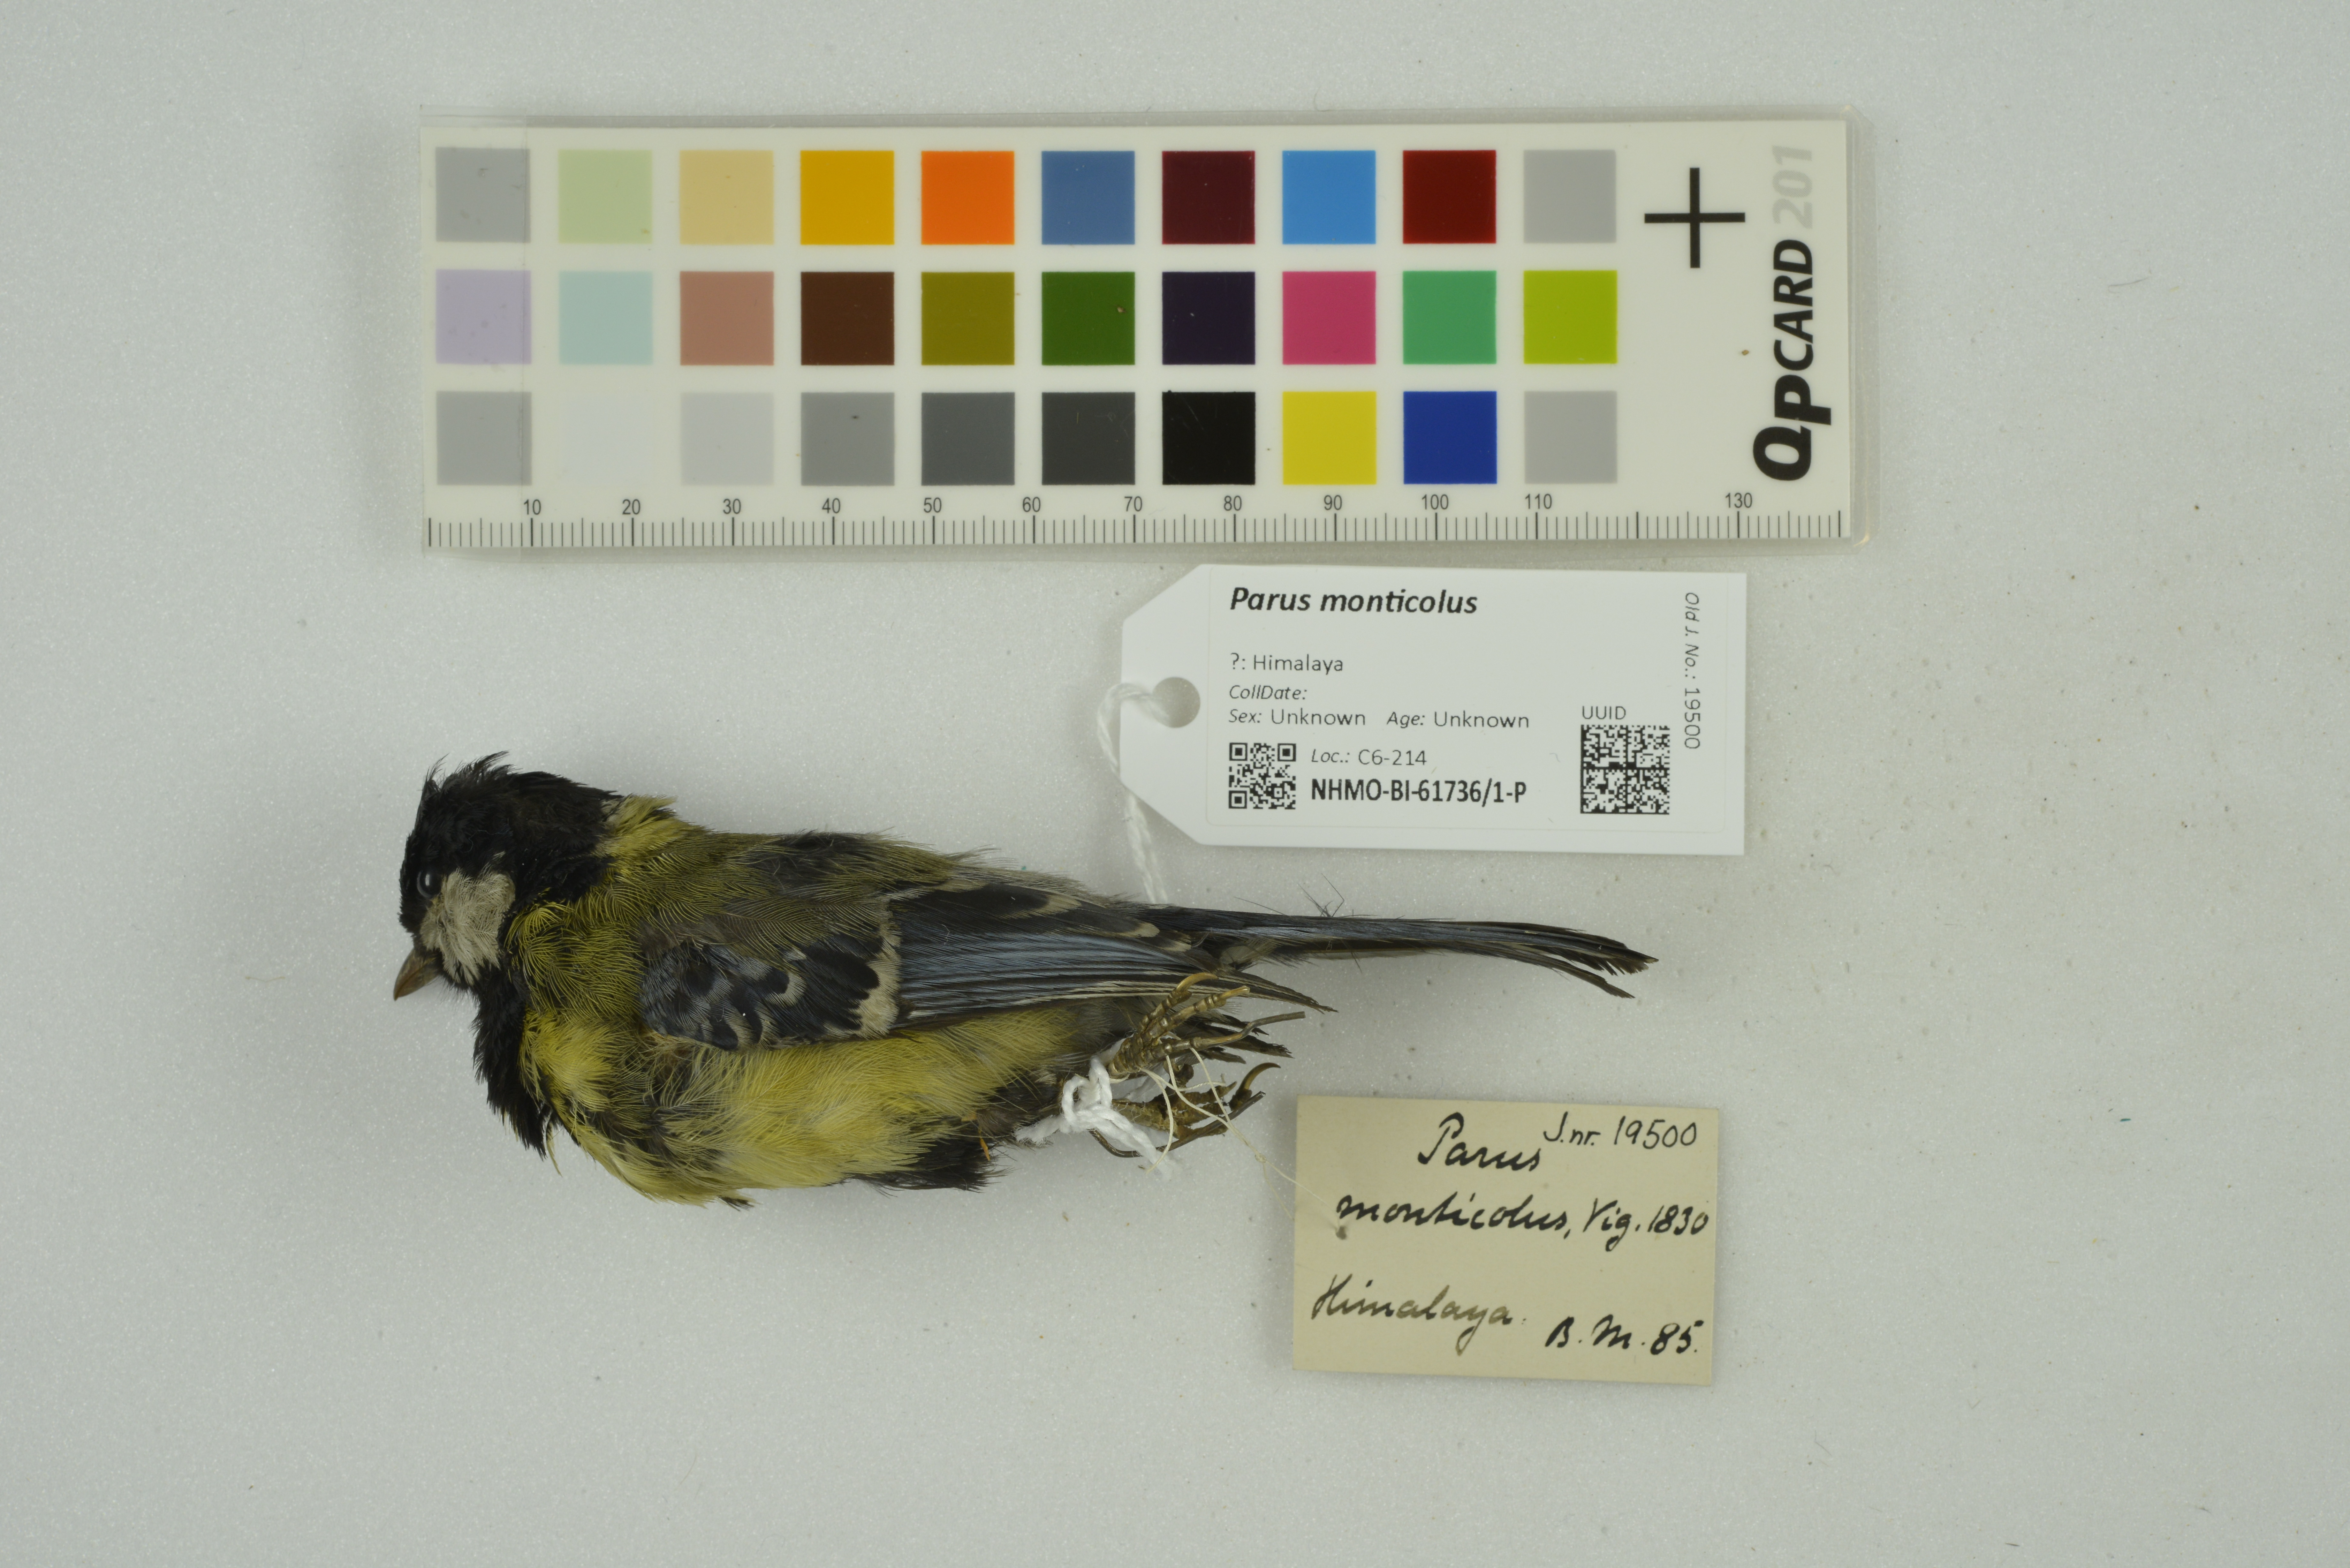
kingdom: Animalia
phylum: Chordata
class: Aves
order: Passeriformes
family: Paridae
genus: Parus
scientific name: Parus monticolus
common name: Green-backed tit
